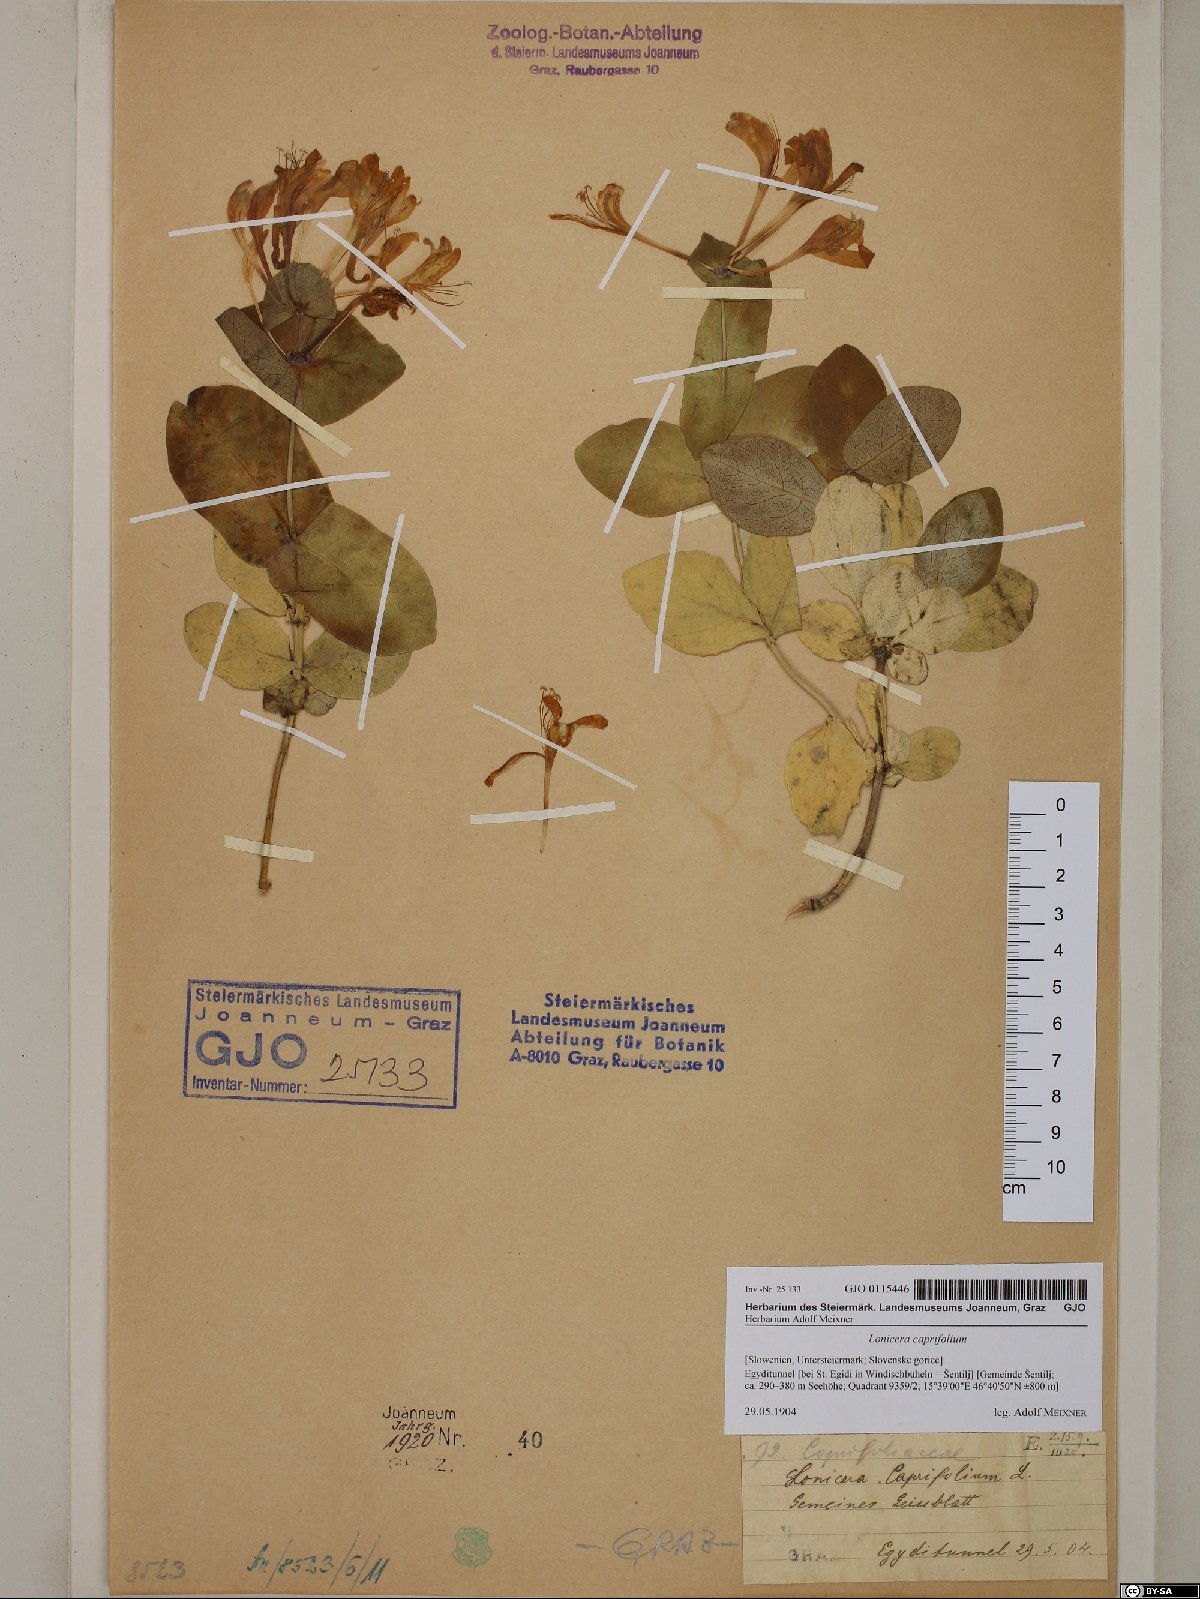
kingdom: Plantae
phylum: Tracheophyta
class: Magnoliopsida
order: Dipsacales
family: Caprifoliaceae
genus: Lonicera
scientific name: Lonicera caprifolium
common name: Perfoliate honeysuckle
